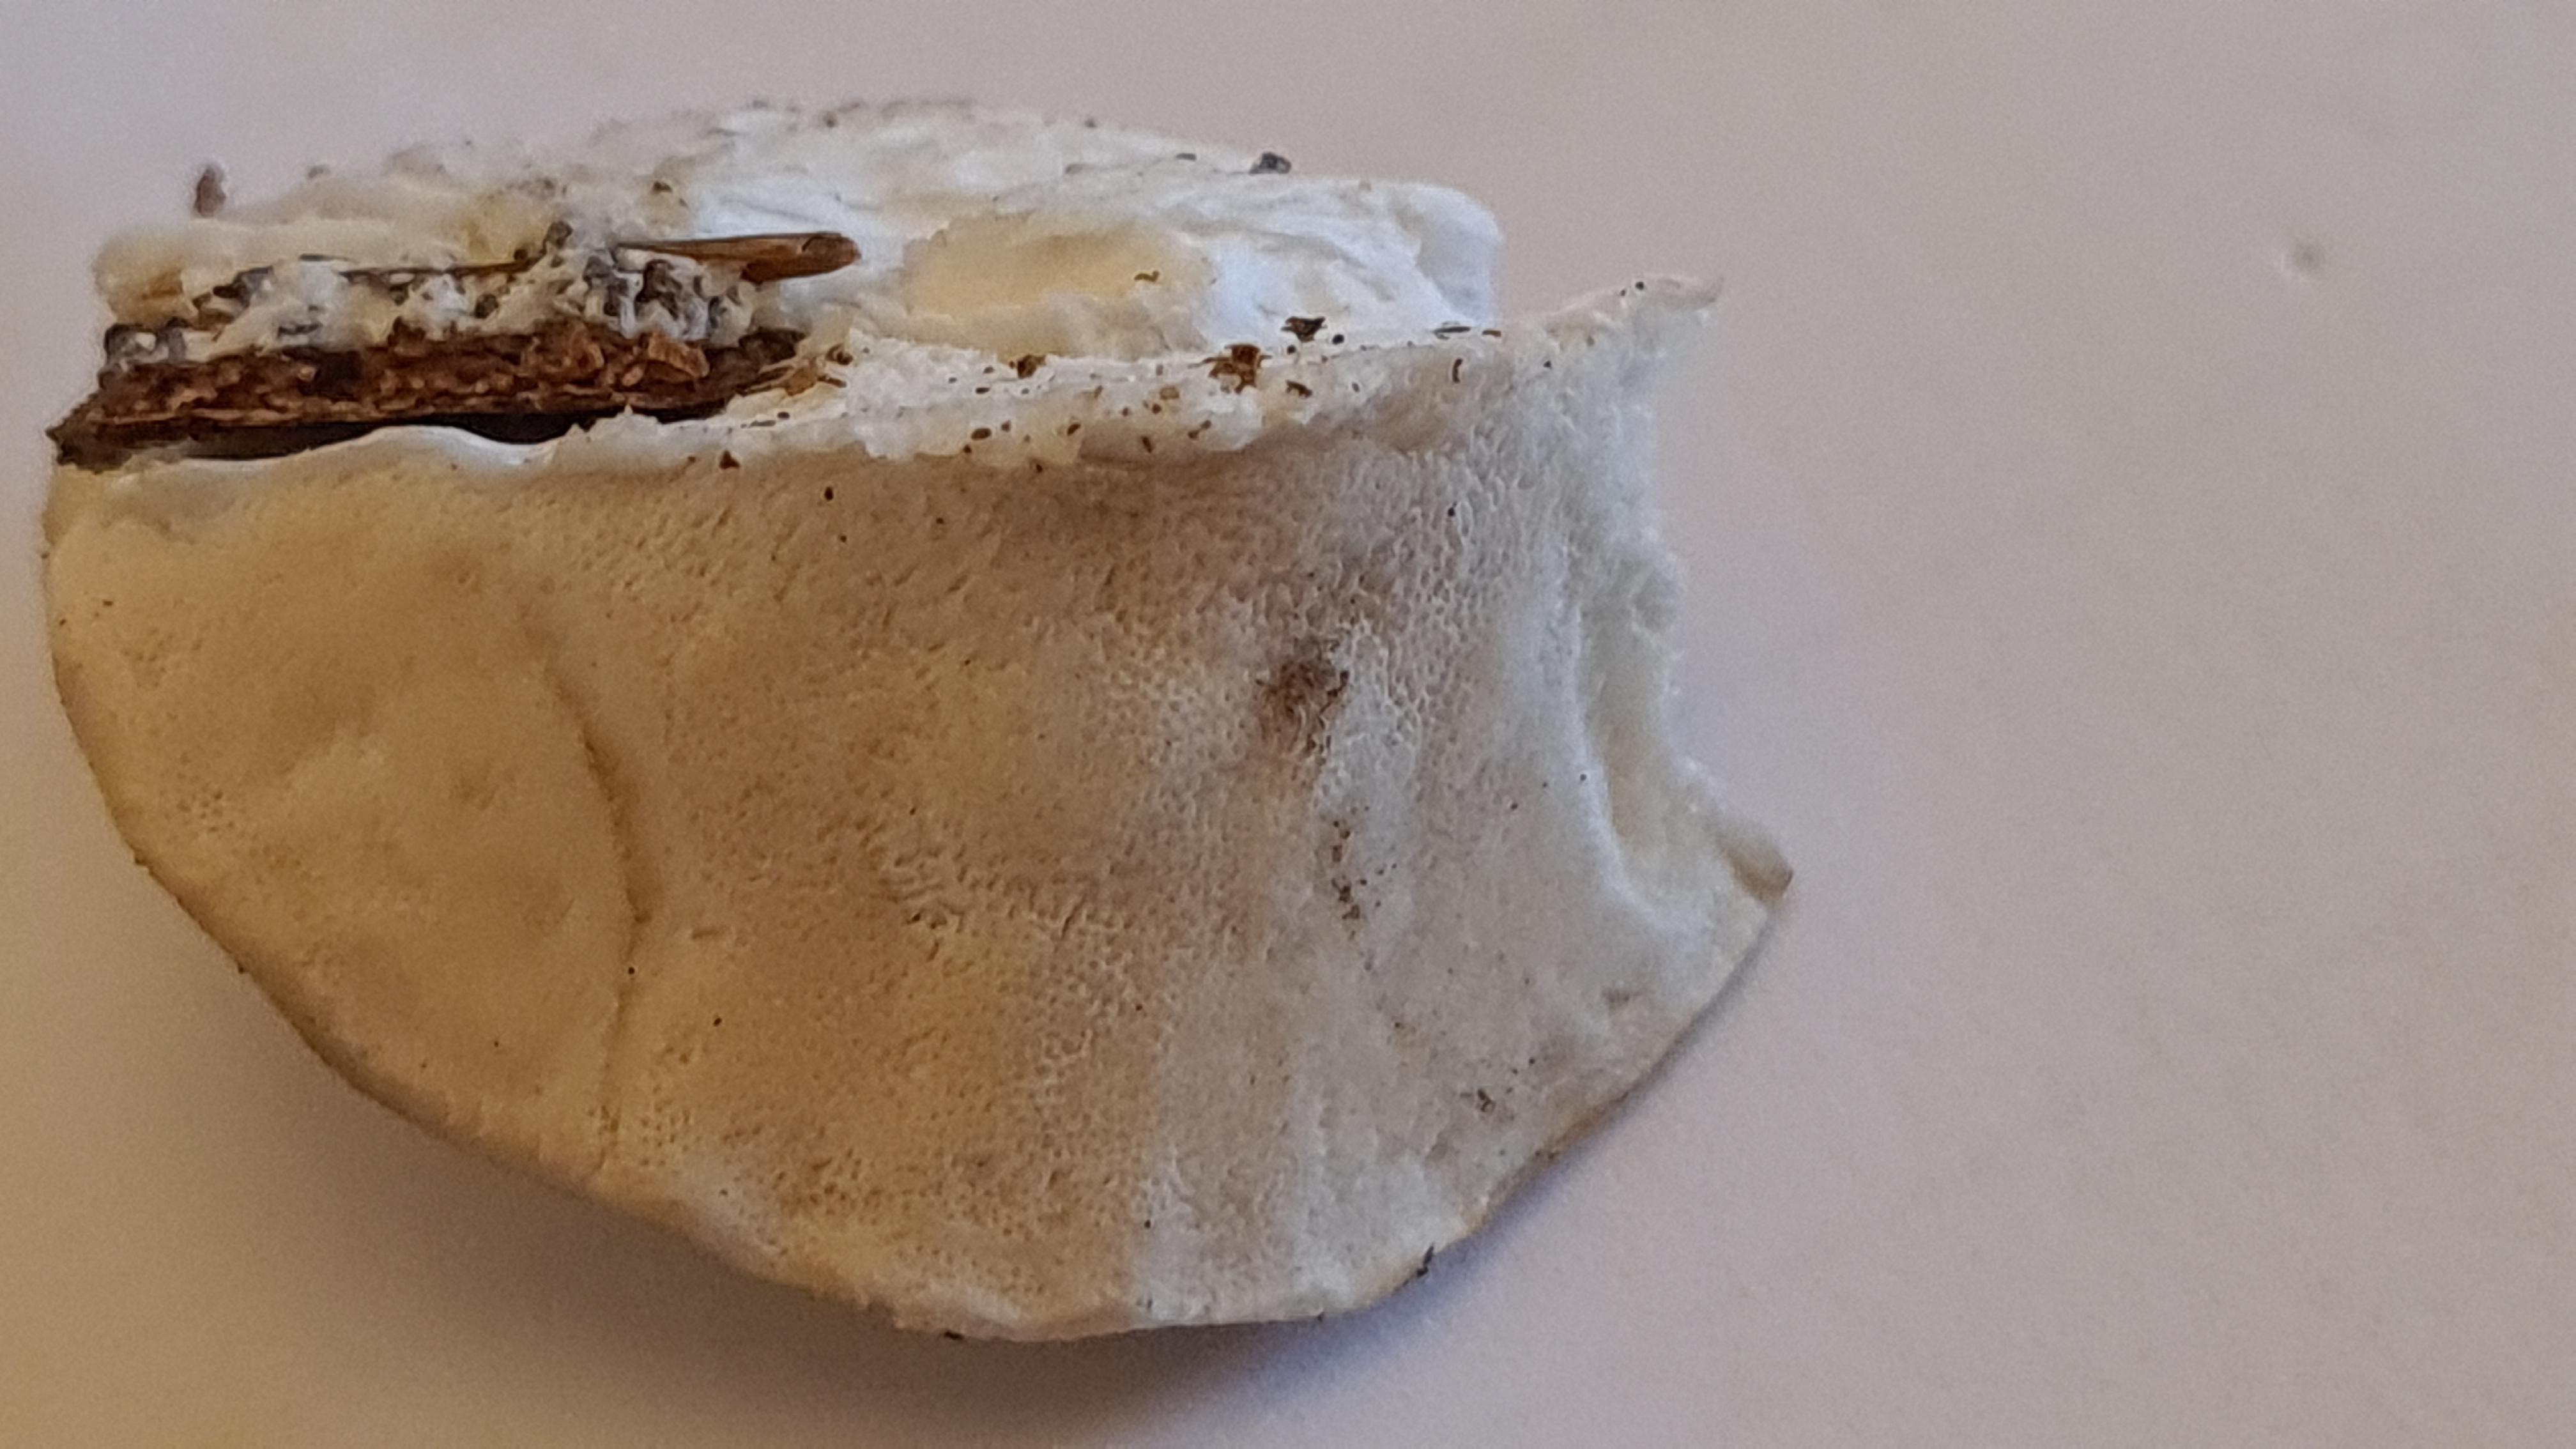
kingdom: Fungi
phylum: Basidiomycota
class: Agaricomycetes
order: Polyporales
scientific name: Polyporales
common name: poresvampordenen
